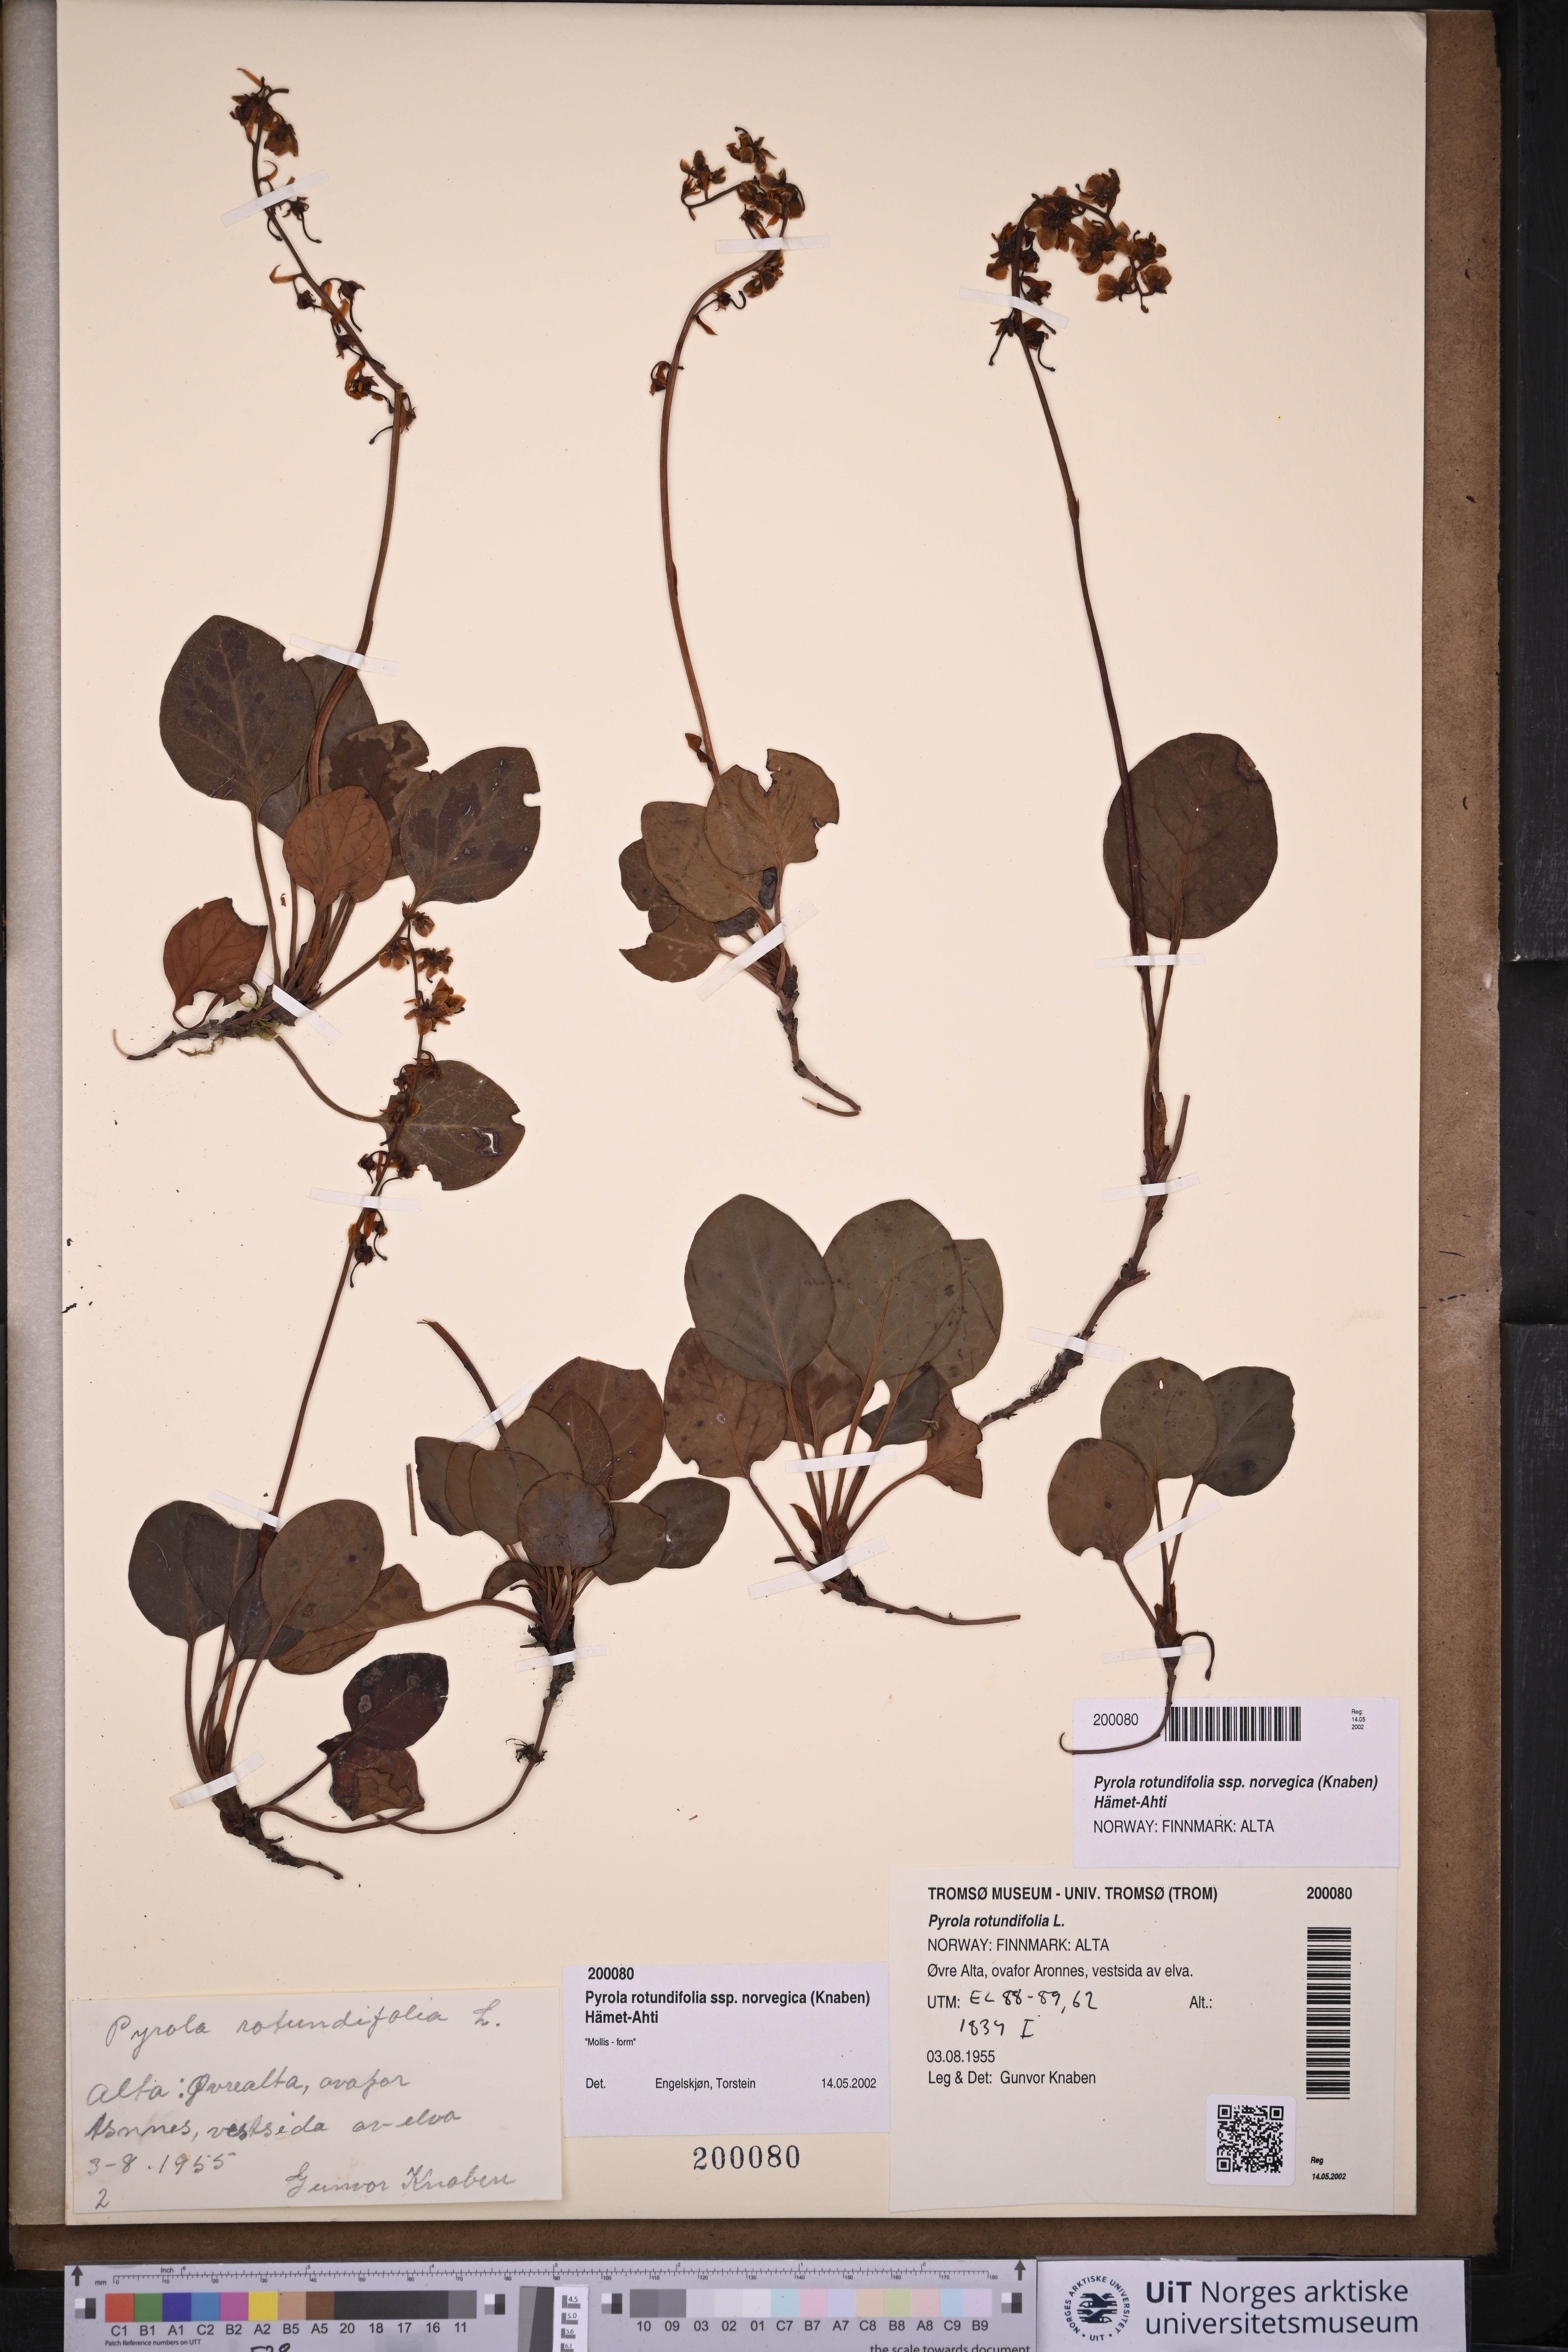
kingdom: Plantae
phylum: Tracheophyta
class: Magnoliopsida
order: Ericales
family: Ericaceae
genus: Pyrola
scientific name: Pyrola rotundifolia
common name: Round-leaved wintergreen
